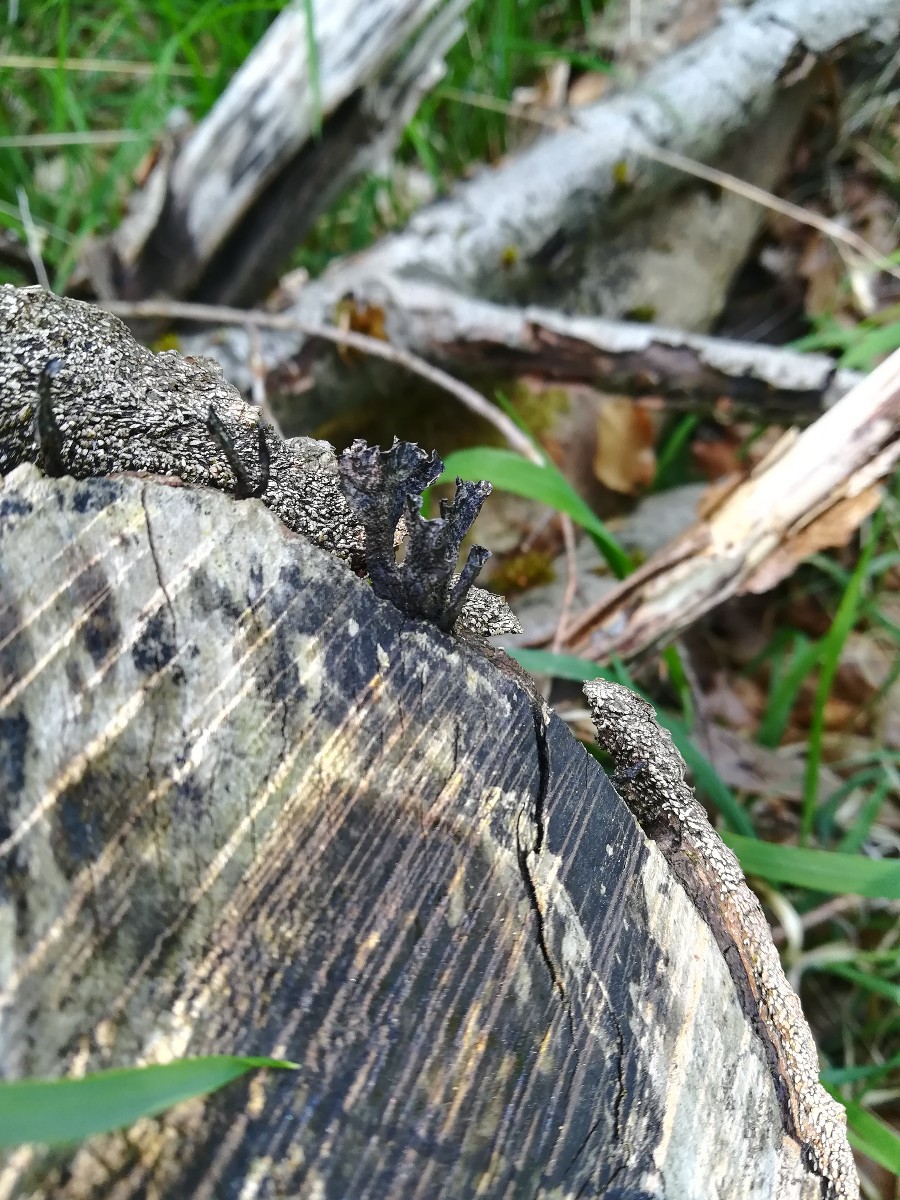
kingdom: Fungi
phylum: Ascomycota
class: Sordariomycetes
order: Xylariales
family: Xylariaceae
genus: Xylaria
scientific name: Xylaria hypoxylon
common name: grenet stødsvamp
